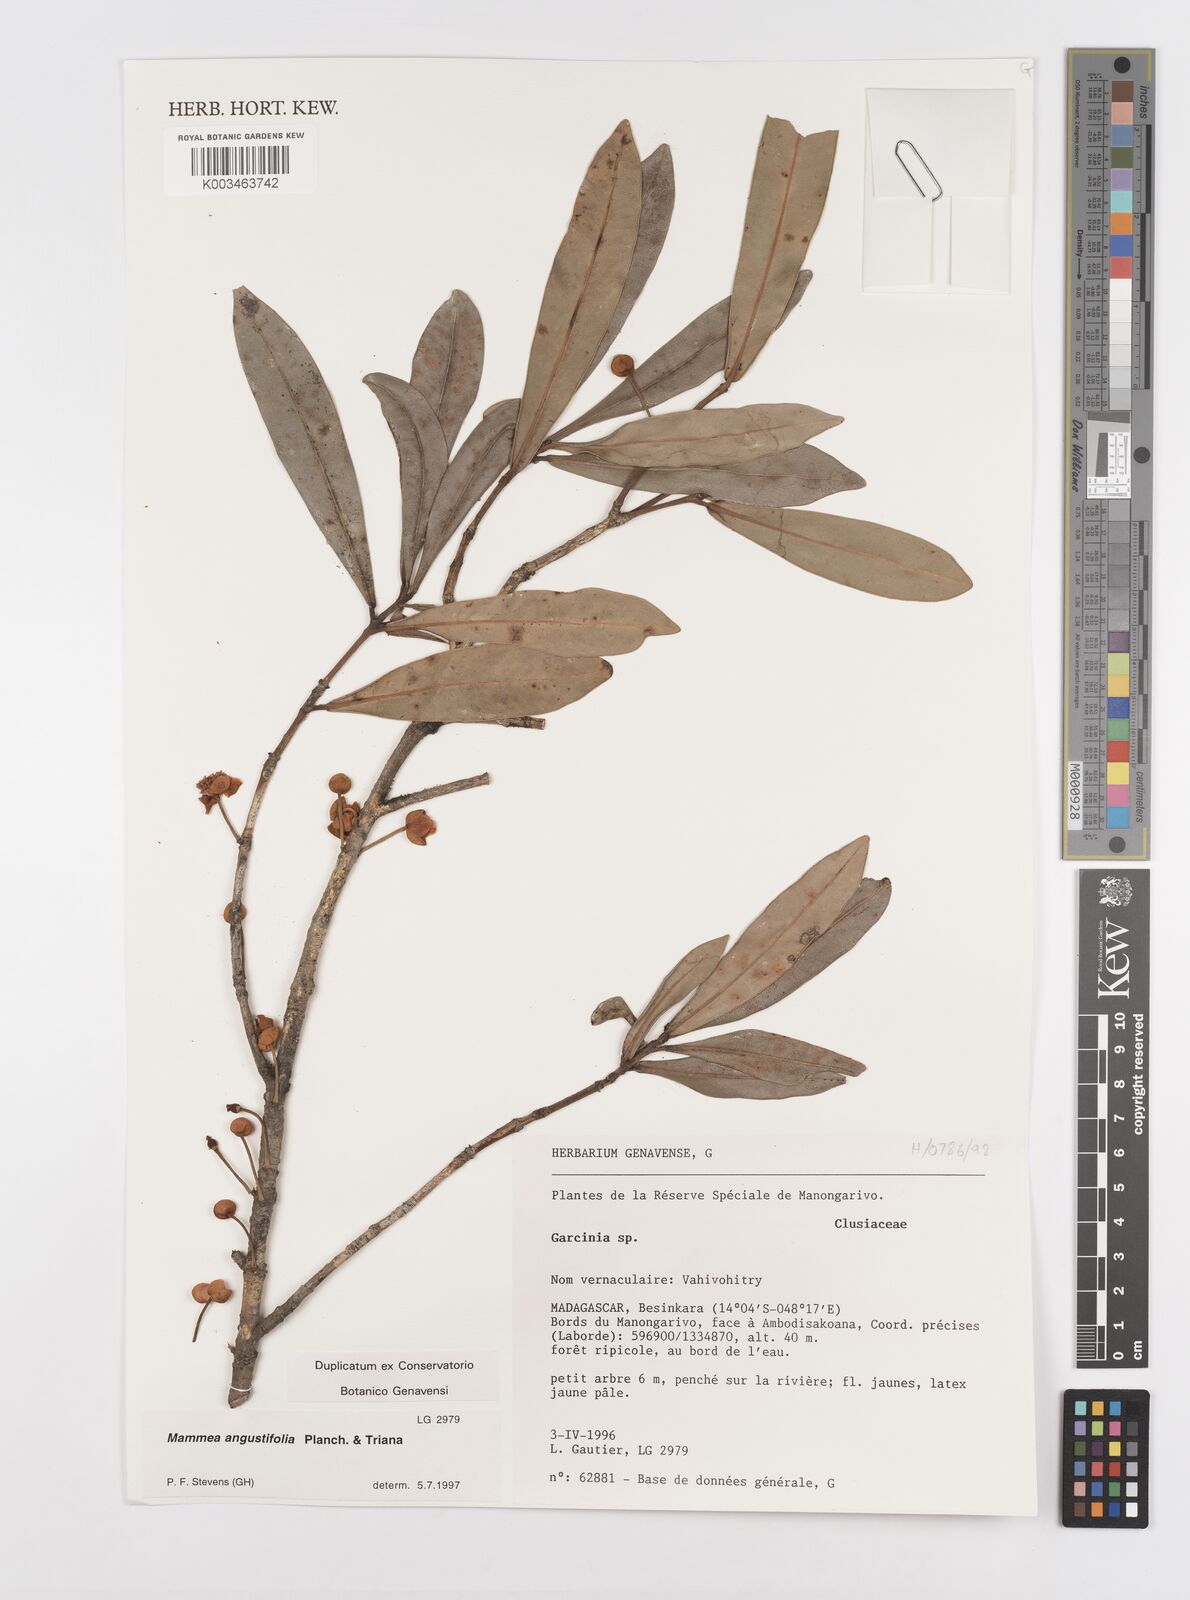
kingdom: Plantae
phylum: Tracheophyta
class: Magnoliopsida
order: Malpighiales
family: Calophyllaceae
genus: Mammea
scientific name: Mammea angustifolia
